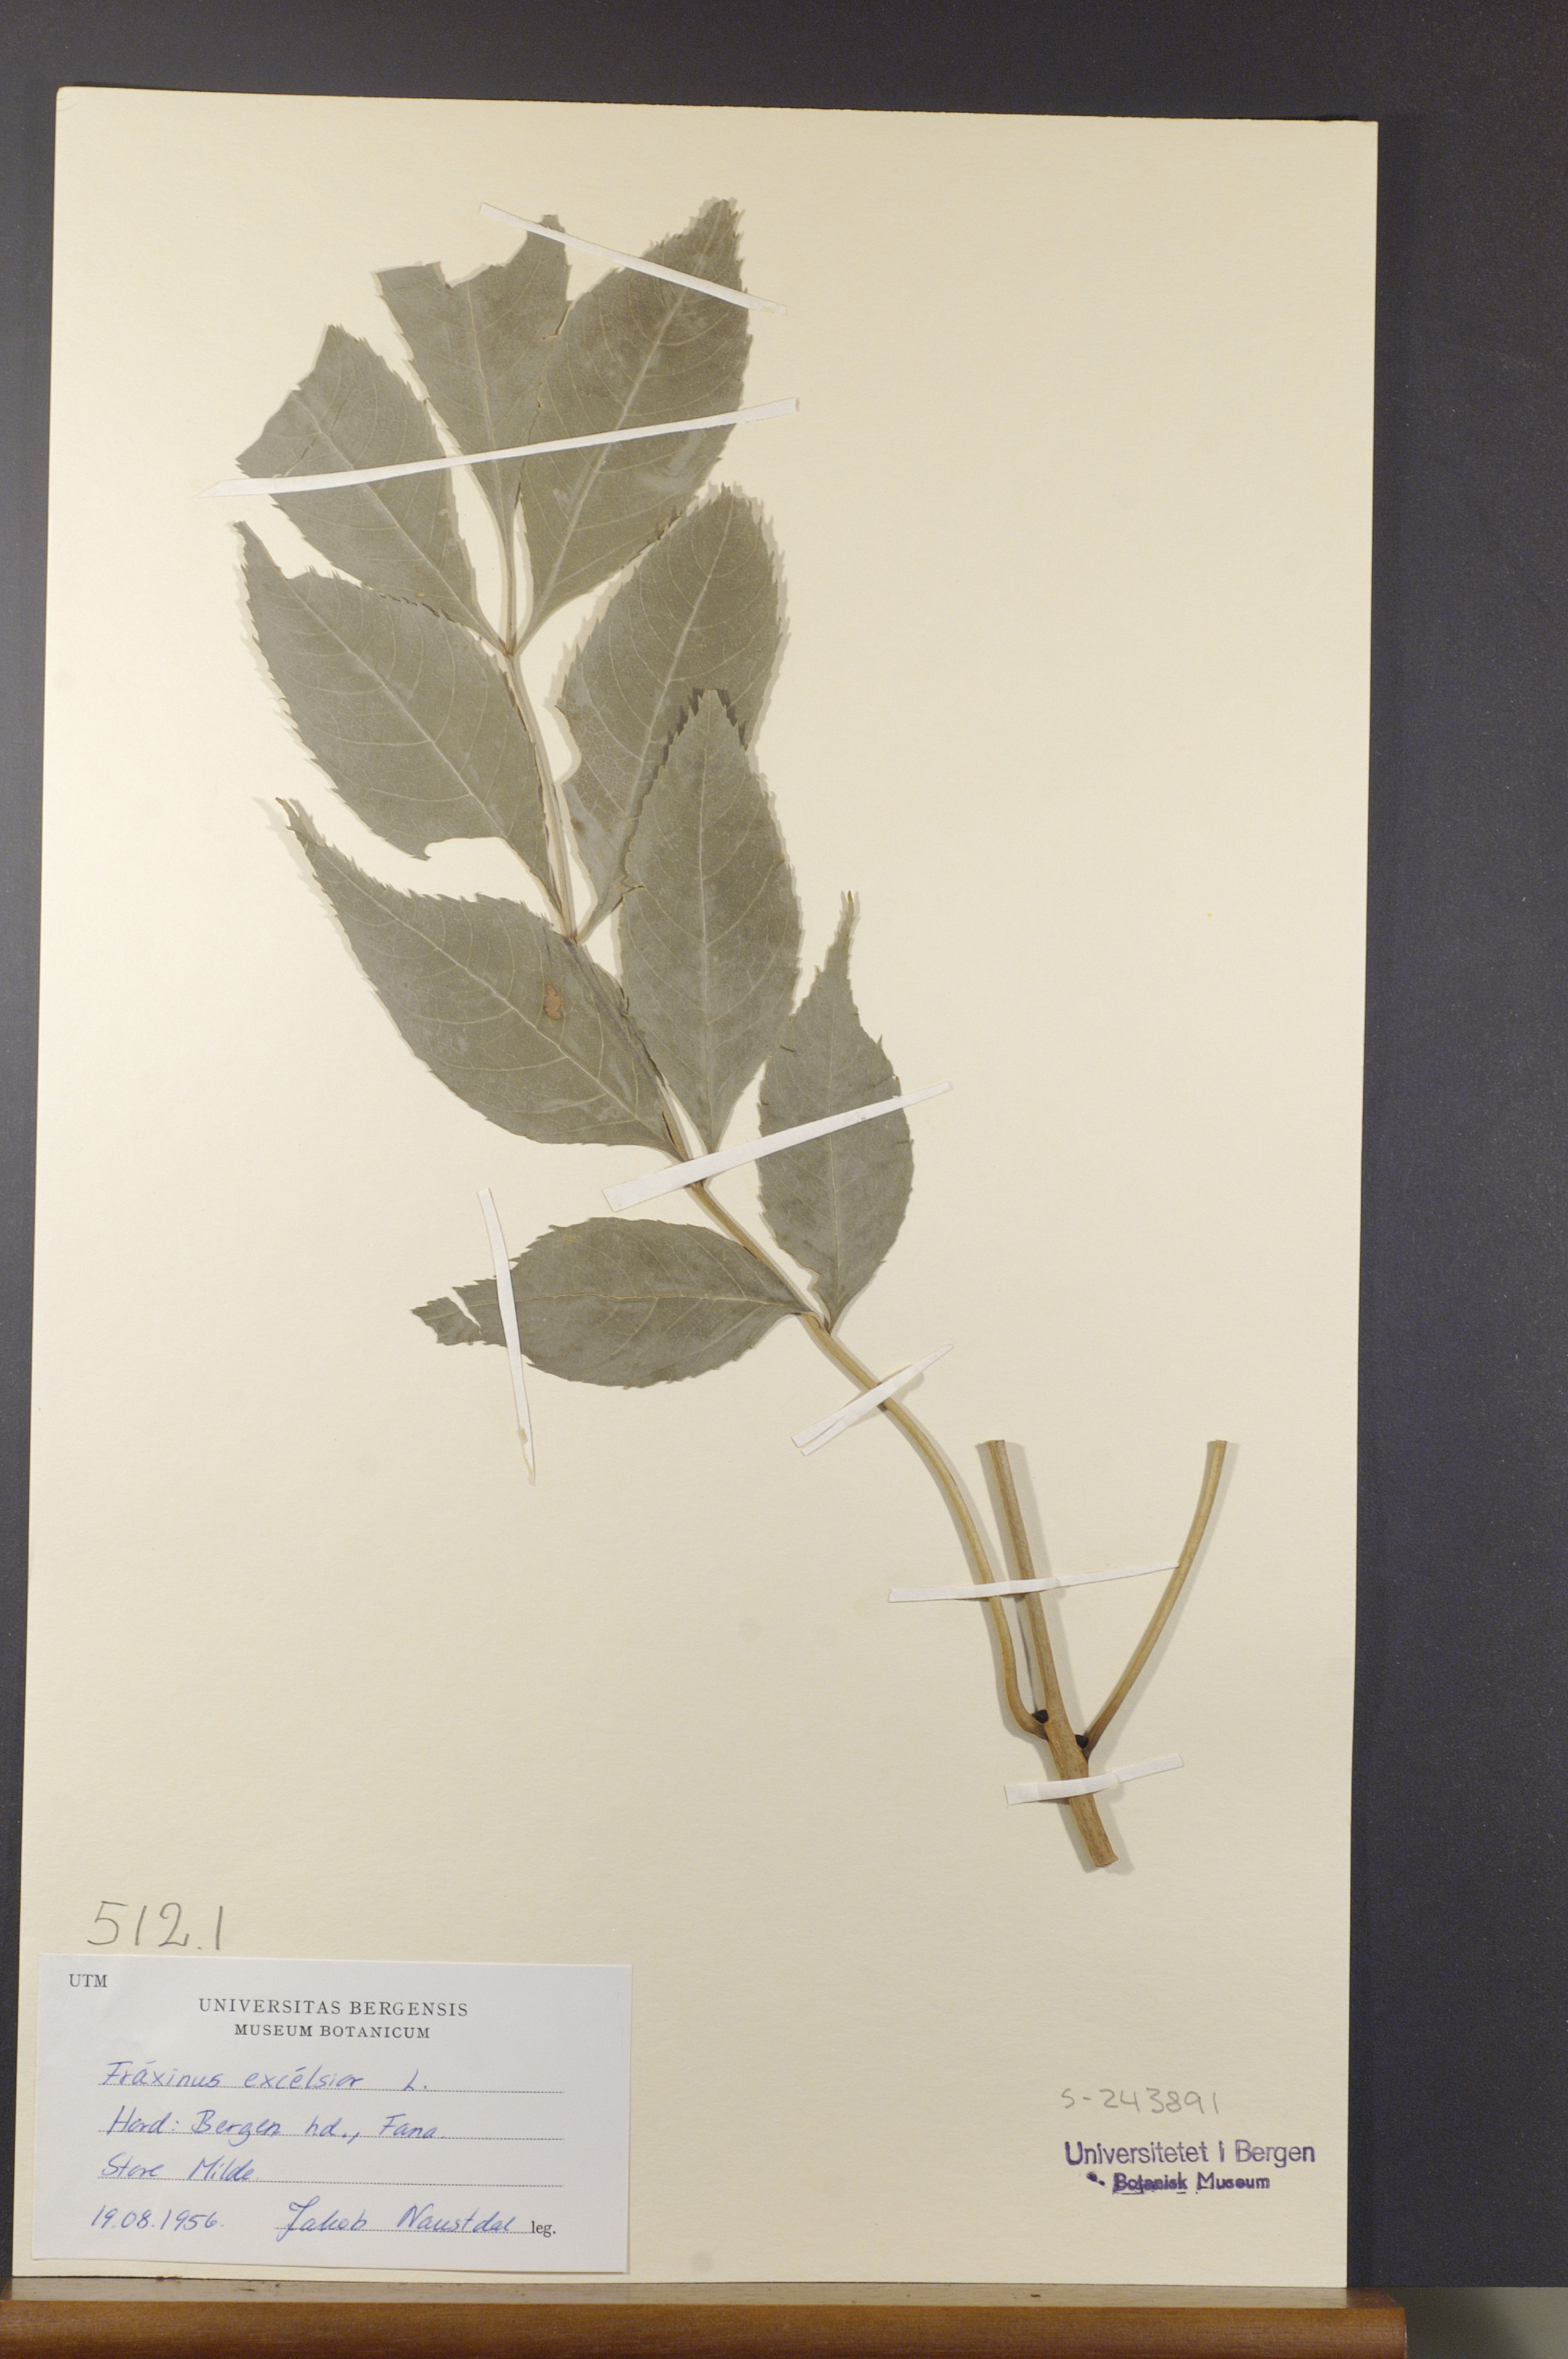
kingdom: Plantae
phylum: Tracheophyta
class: Magnoliopsida
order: Lamiales
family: Oleaceae
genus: Fraxinus
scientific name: Fraxinus excelsior
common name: European ash
